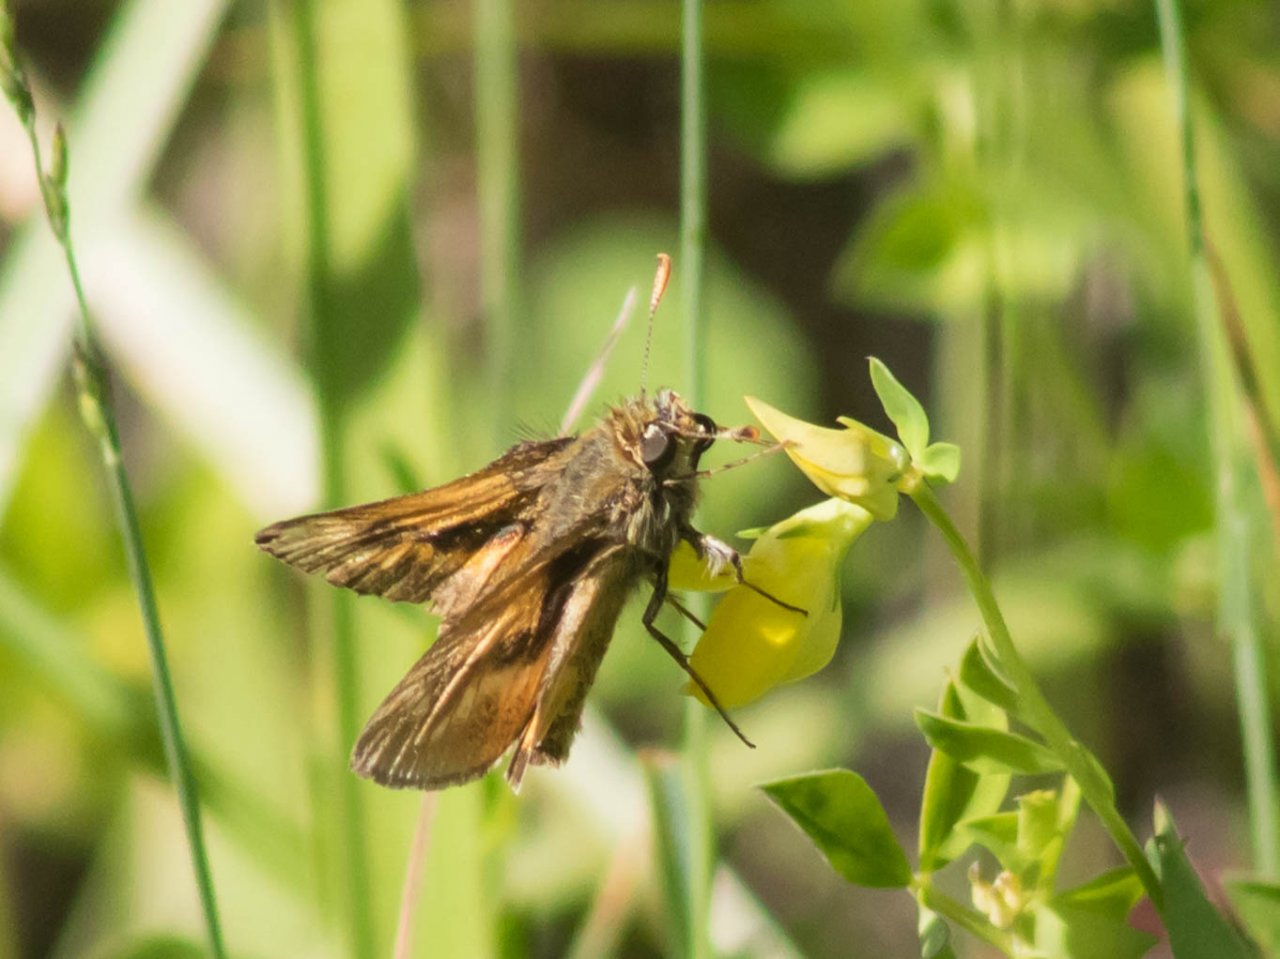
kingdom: Animalia
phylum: Arthropoda
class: Insecta
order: Lepidoptera
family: Hesperiidae
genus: Polites
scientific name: Polites
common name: Long Dash Skipper
